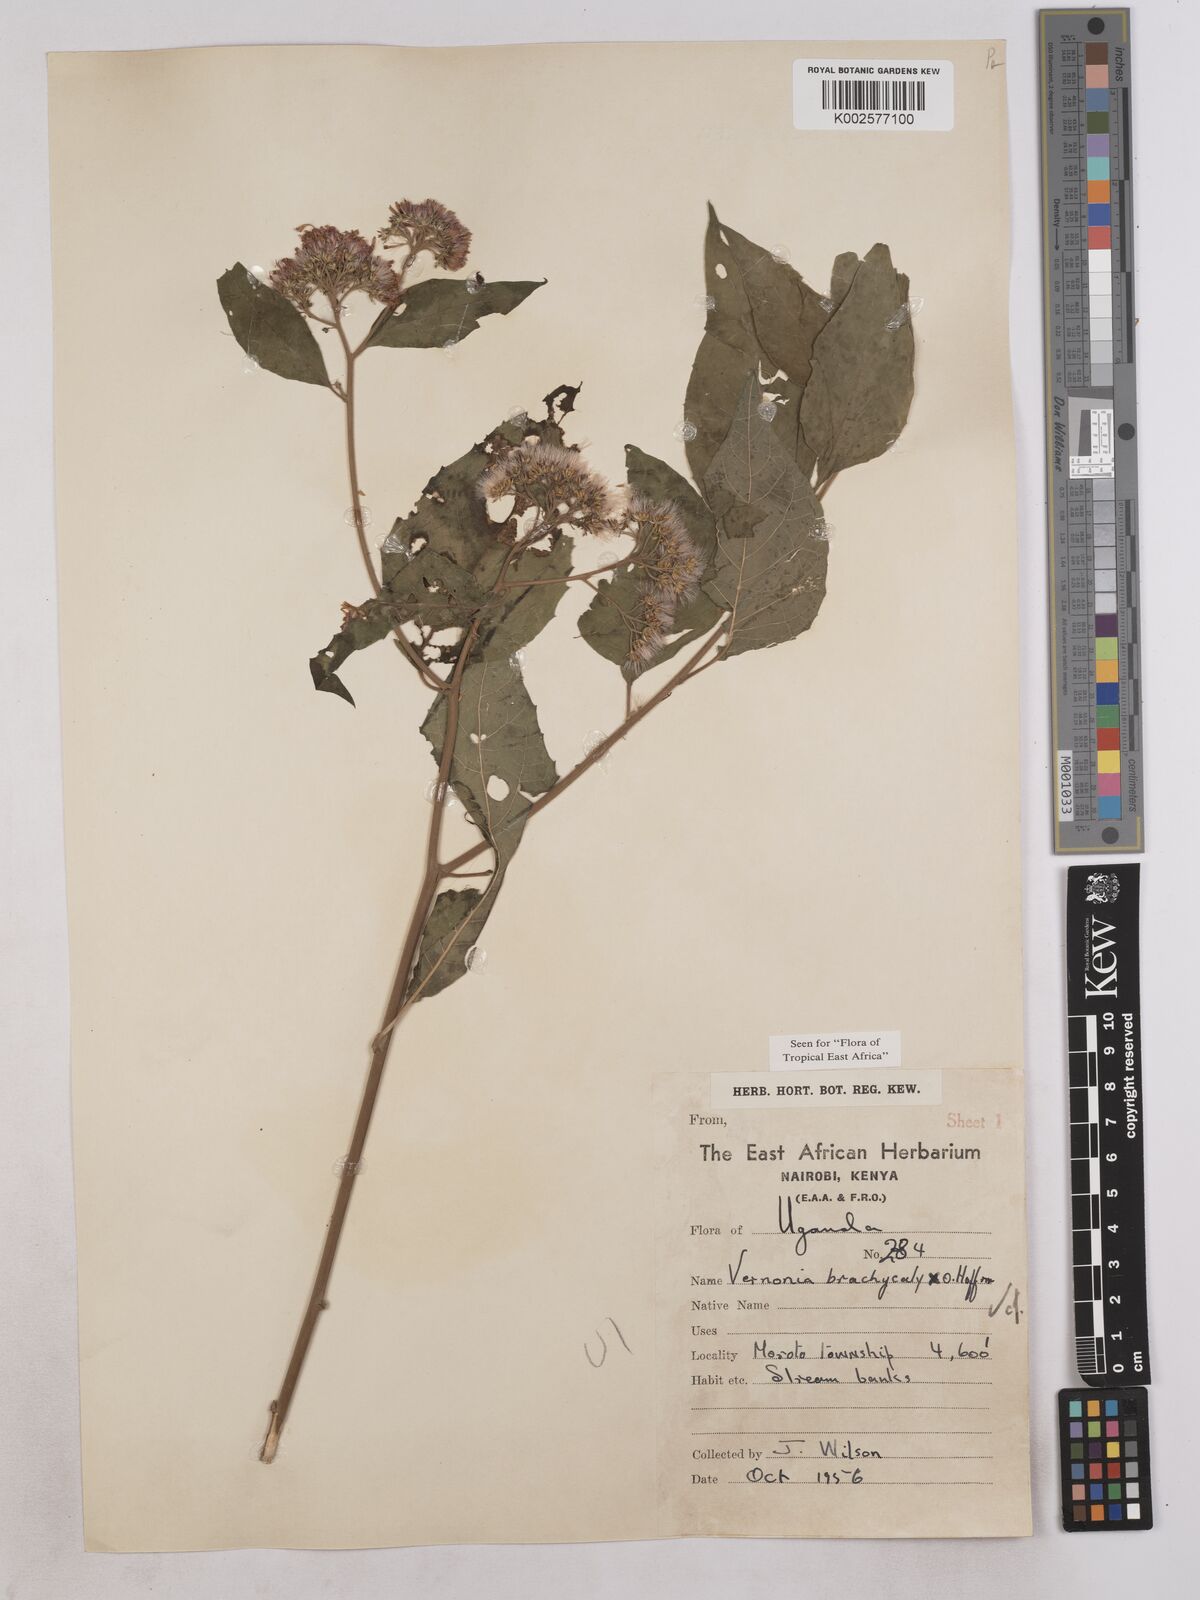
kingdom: Plantae
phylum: Tracheophyta
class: Magnoliopsida
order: Asterales
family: Asteraceae
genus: Hoffmannanthus
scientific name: Hoffmannanthus abbotianus
